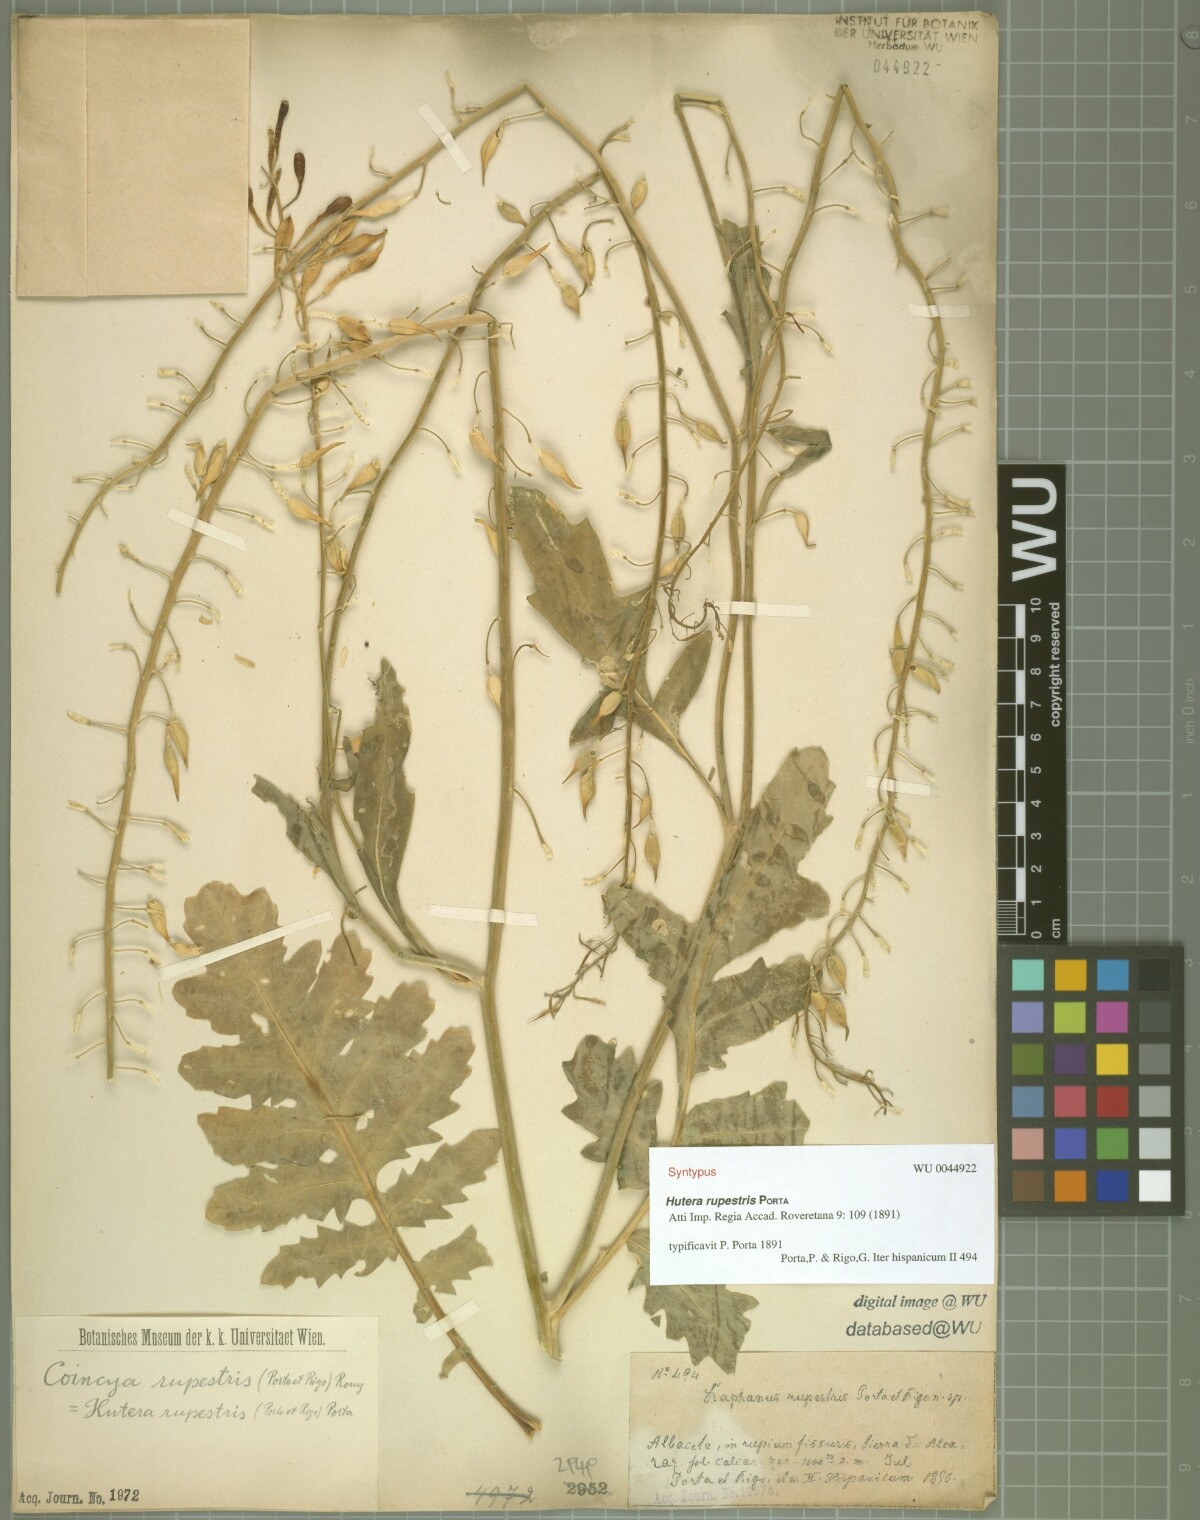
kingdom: Plantae
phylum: Tracheophyta
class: Magnoliopsida
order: Brassicales
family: Brassicaceae
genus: Coincya
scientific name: Coincya rupestris
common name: Conicy's rock cabbage
